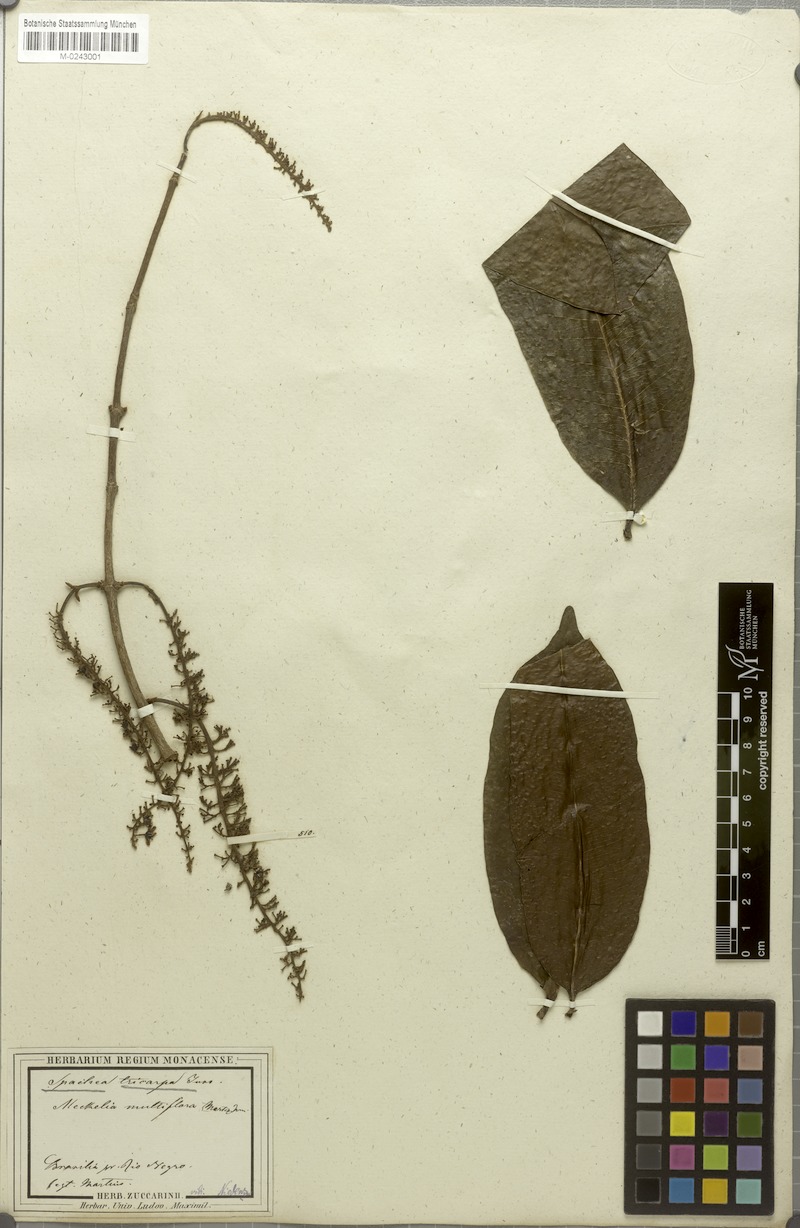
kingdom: Plantae
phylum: Tracheophyta
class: Magnoliopsida
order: Malpighiales
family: Malpighiaceae
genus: Spachea
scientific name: Spachea tricarpa
